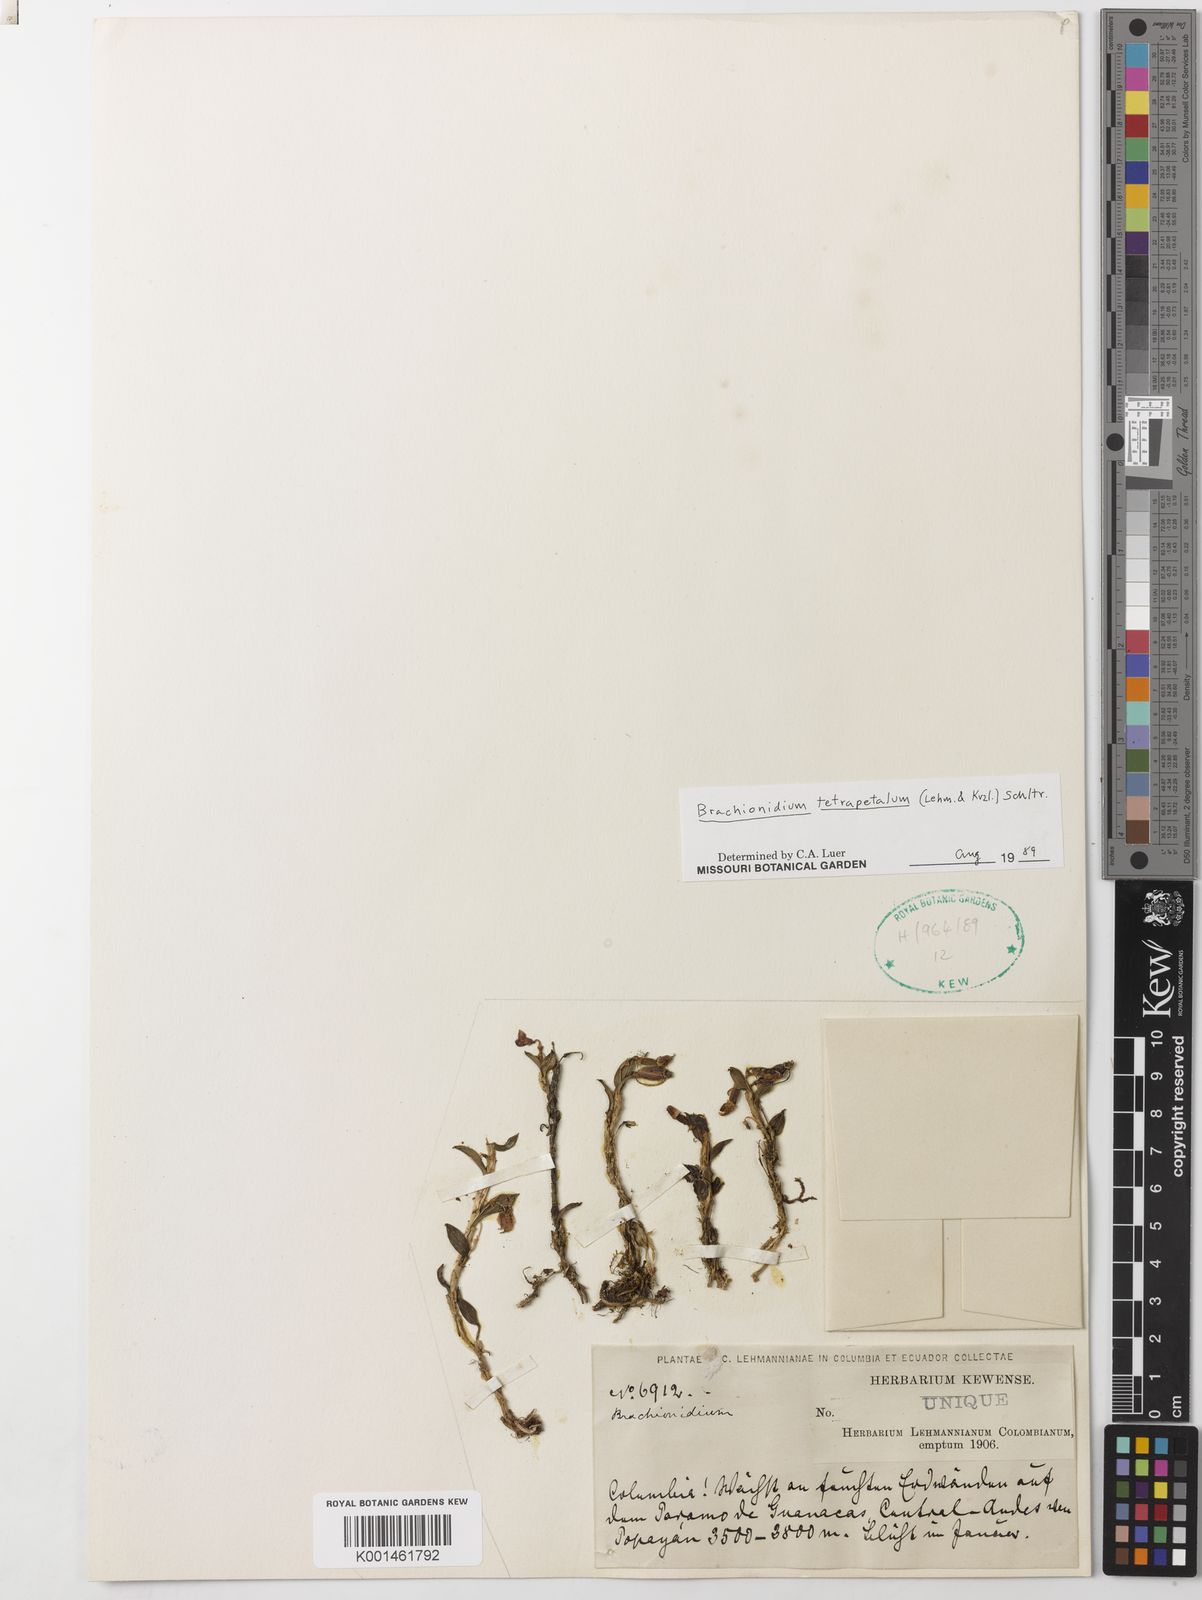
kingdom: Plantae
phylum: Tracheophyta
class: Liliopsida
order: Asparagales
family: Orchidaceae
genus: Brachionidium
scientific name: Brachionidium tetrapetalum
